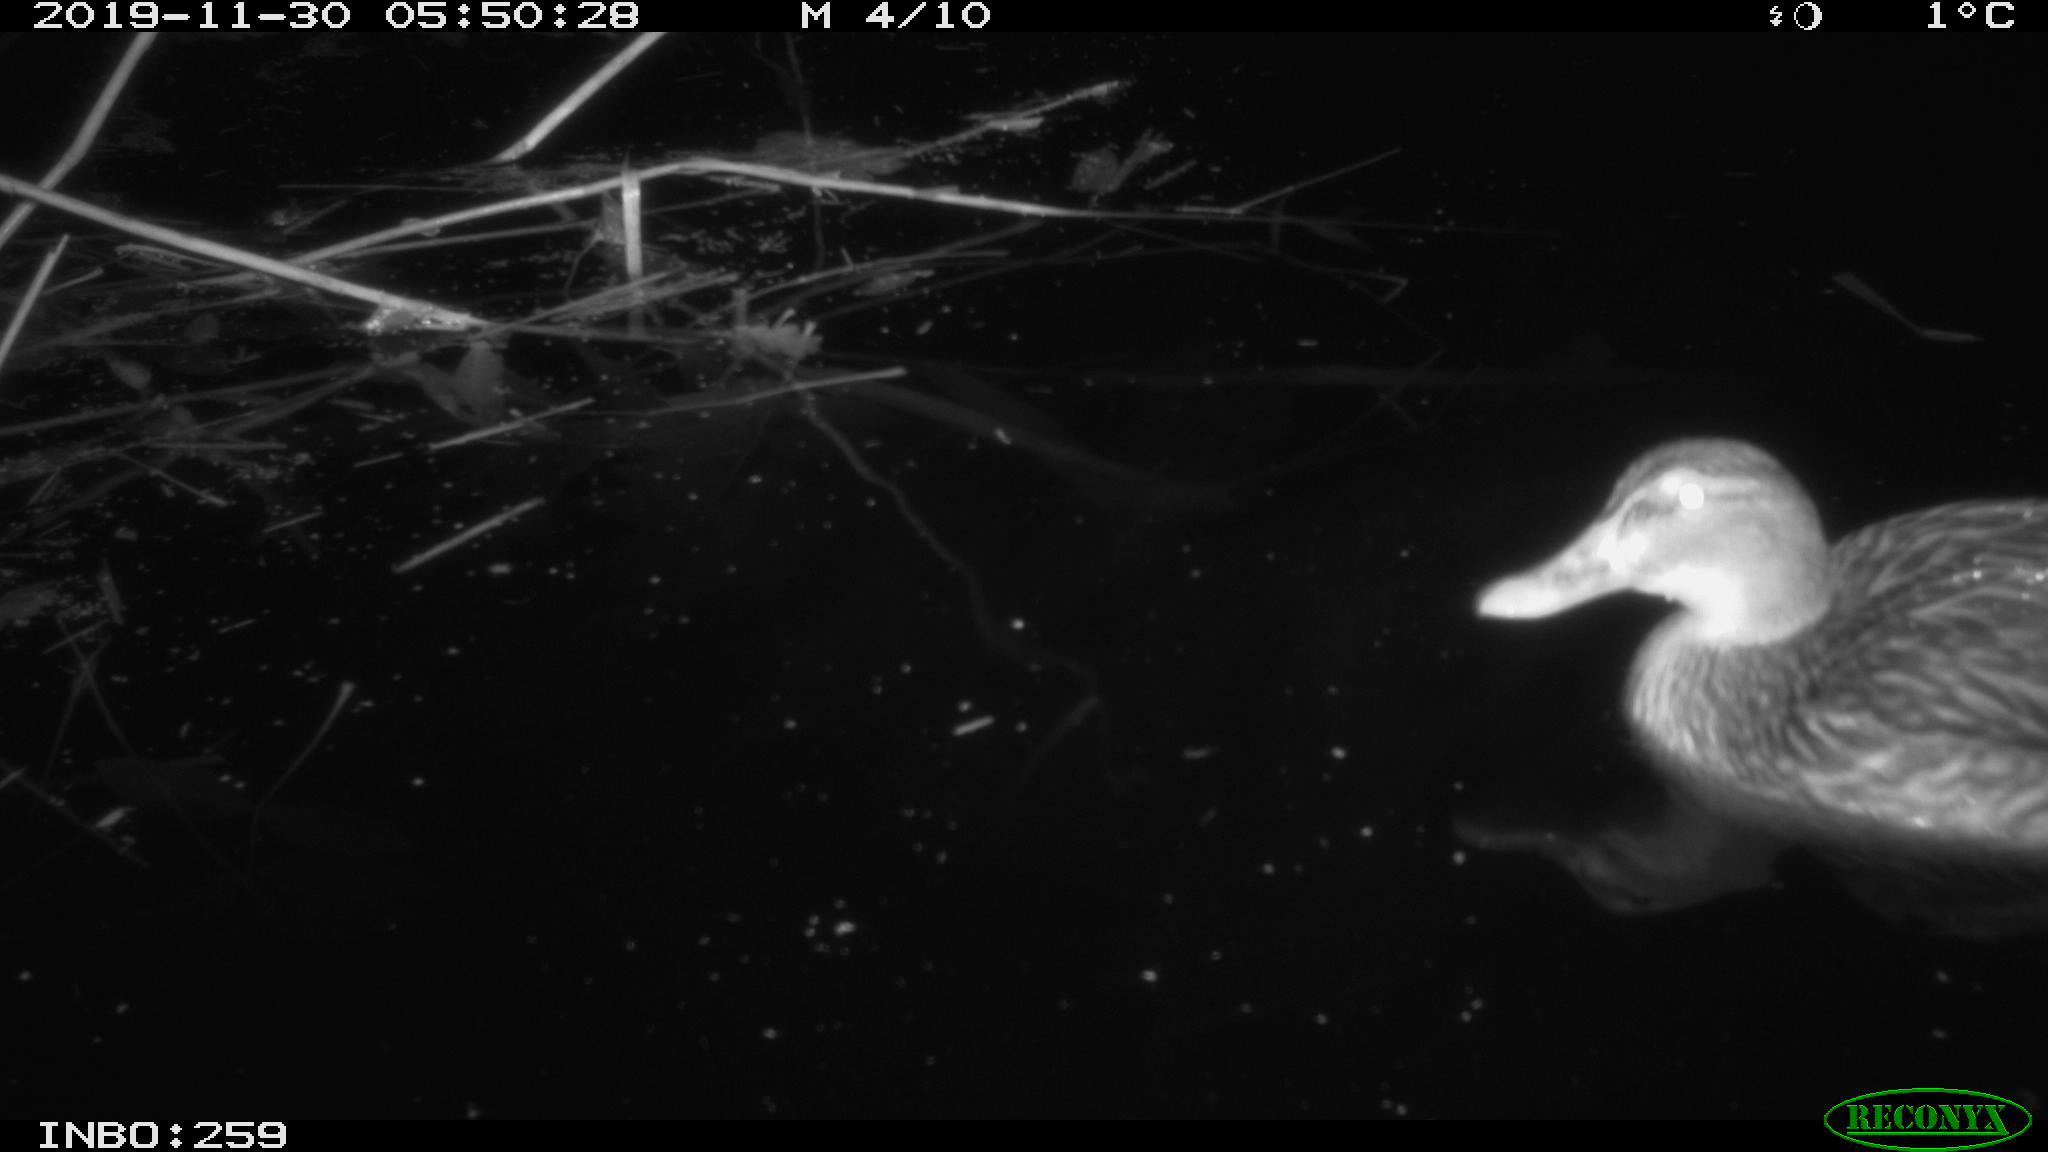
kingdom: Animalia
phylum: Chordata
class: Aves
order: Anseriformes
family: Anatidae
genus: Anas
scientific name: Anas platyrhynchos
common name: Mallard
